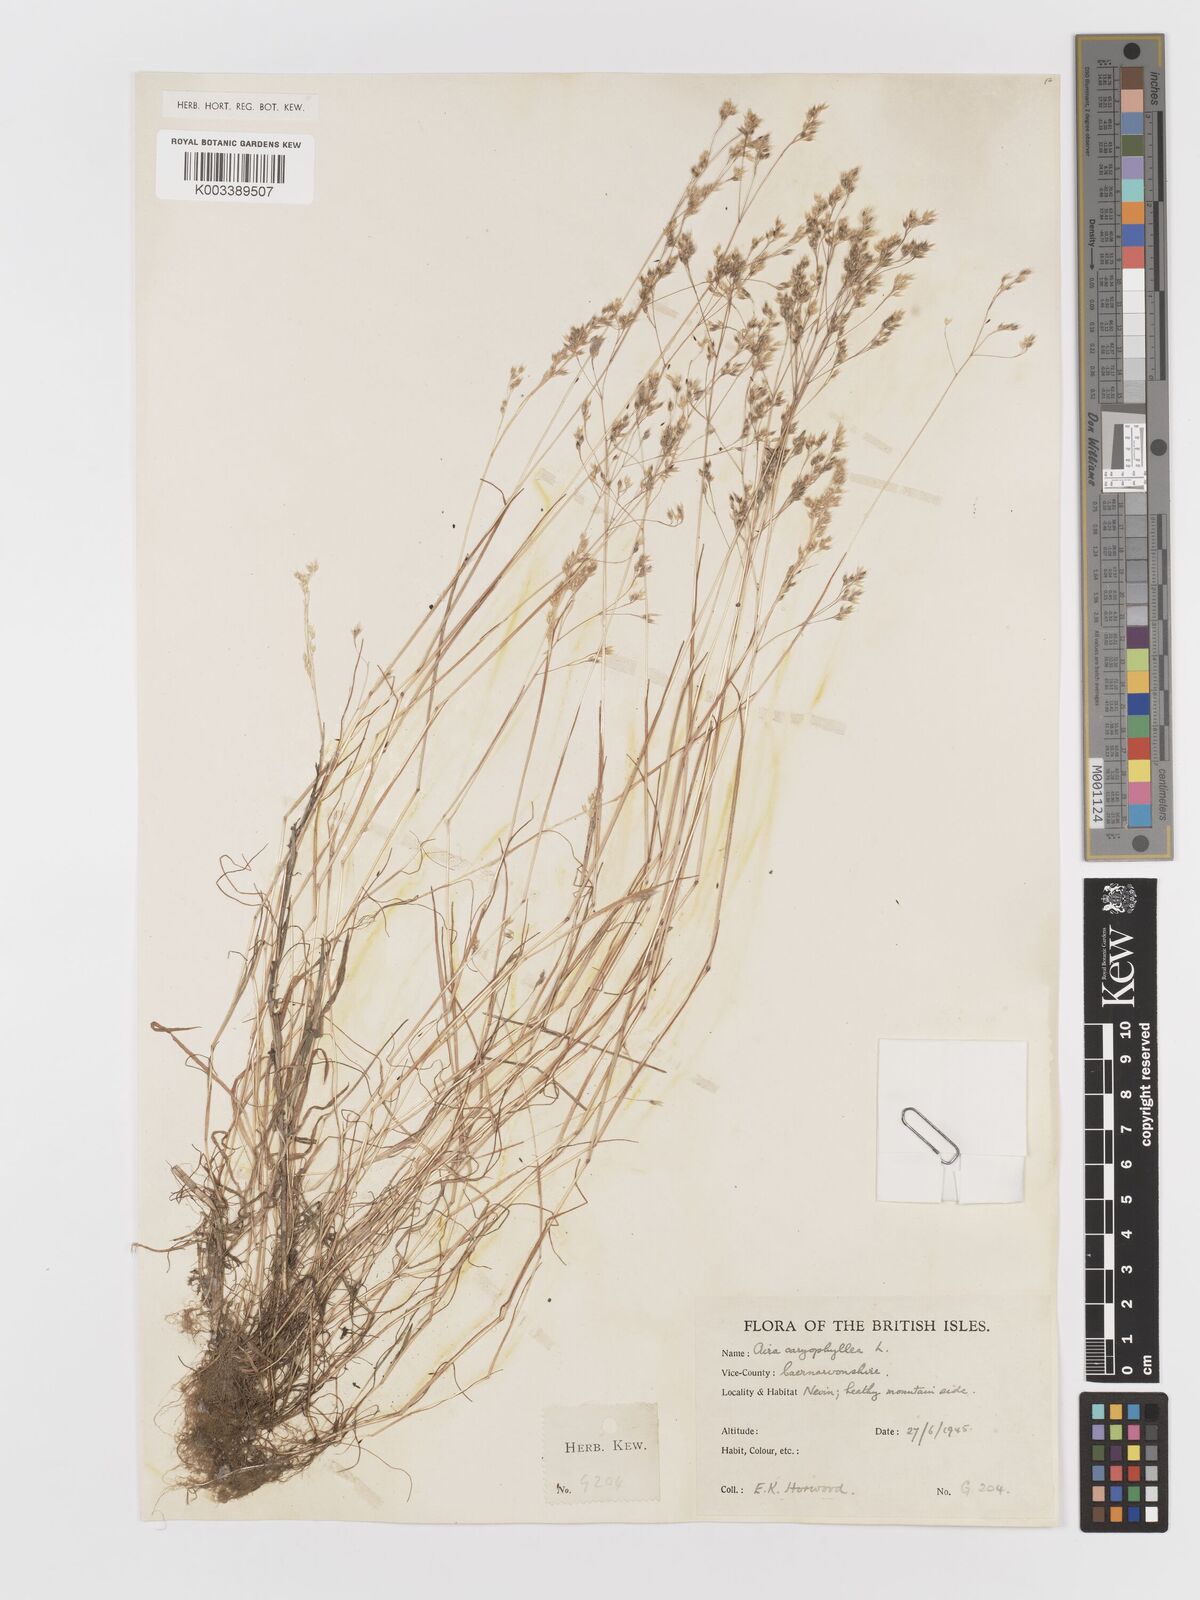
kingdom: Plantae
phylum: Tracheophyta
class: Liliopsida
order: Poales
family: Poaceae
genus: Aira
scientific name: Aira caryophyllea
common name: Silver hairgrass
